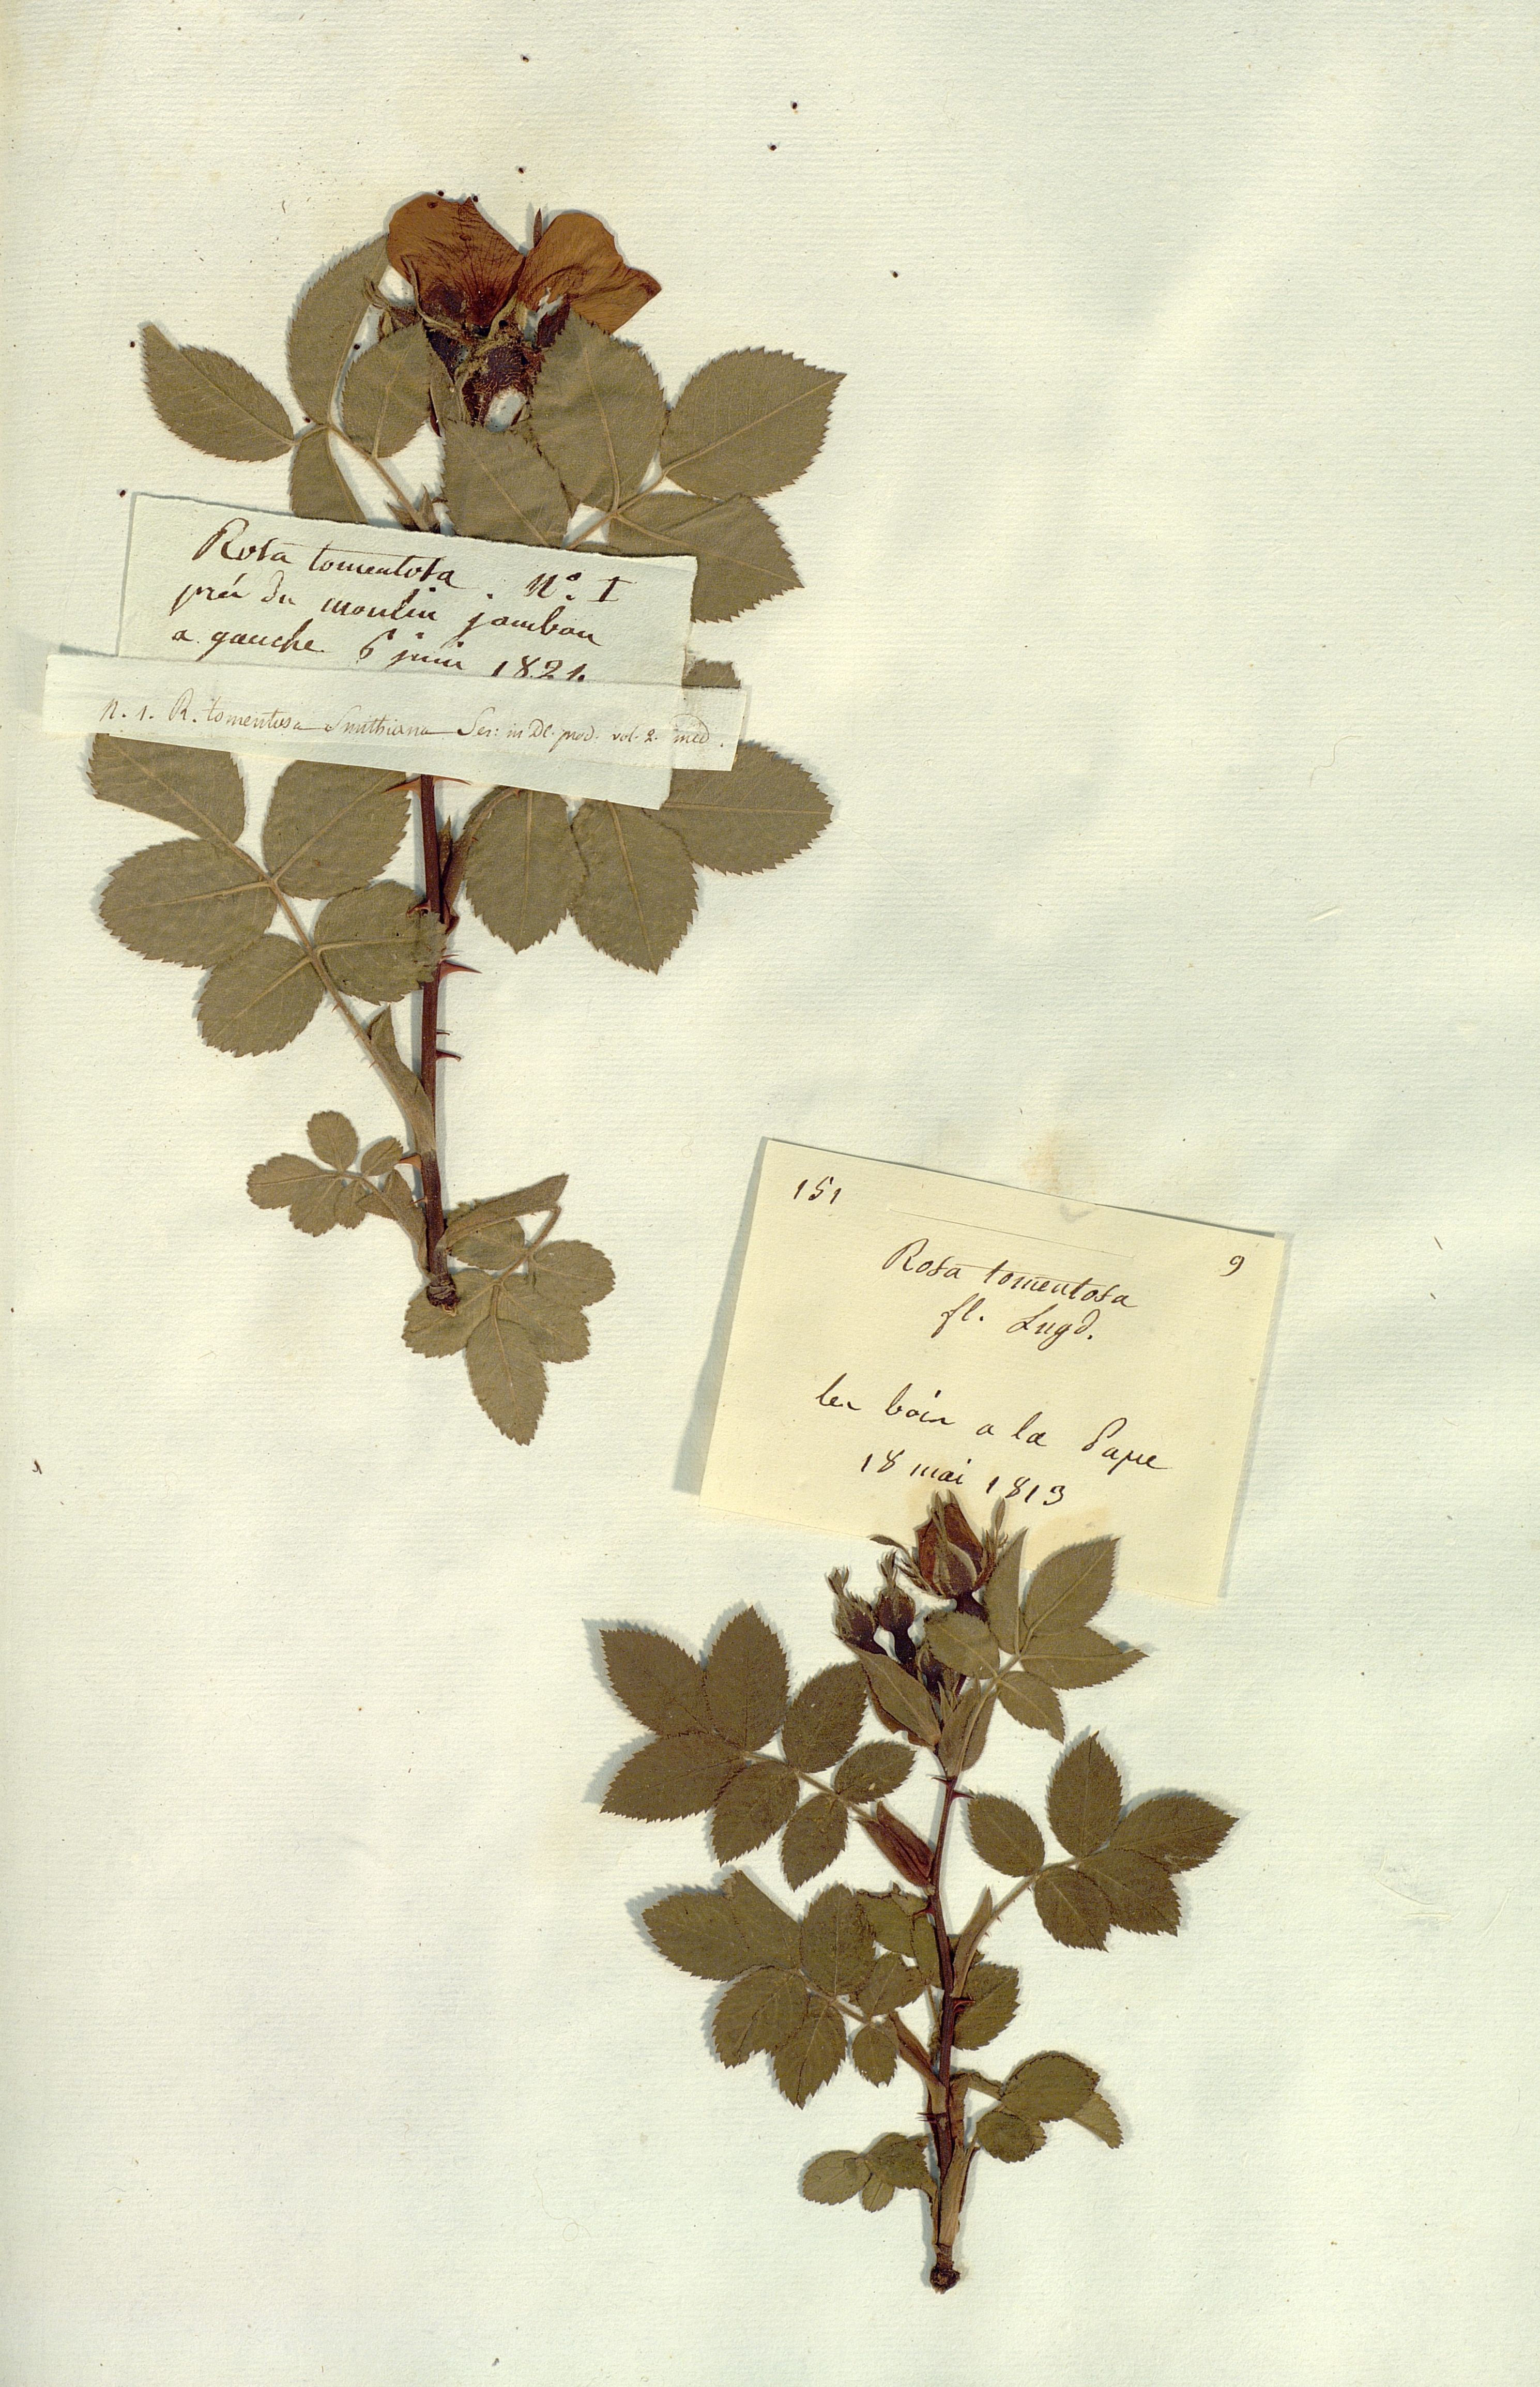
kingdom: Plantae
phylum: Tracheophyta
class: Magnoliopsida
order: Rosales
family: Rosaceae
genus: Rosa
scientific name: Rosa tomentosa
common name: Downy rose
